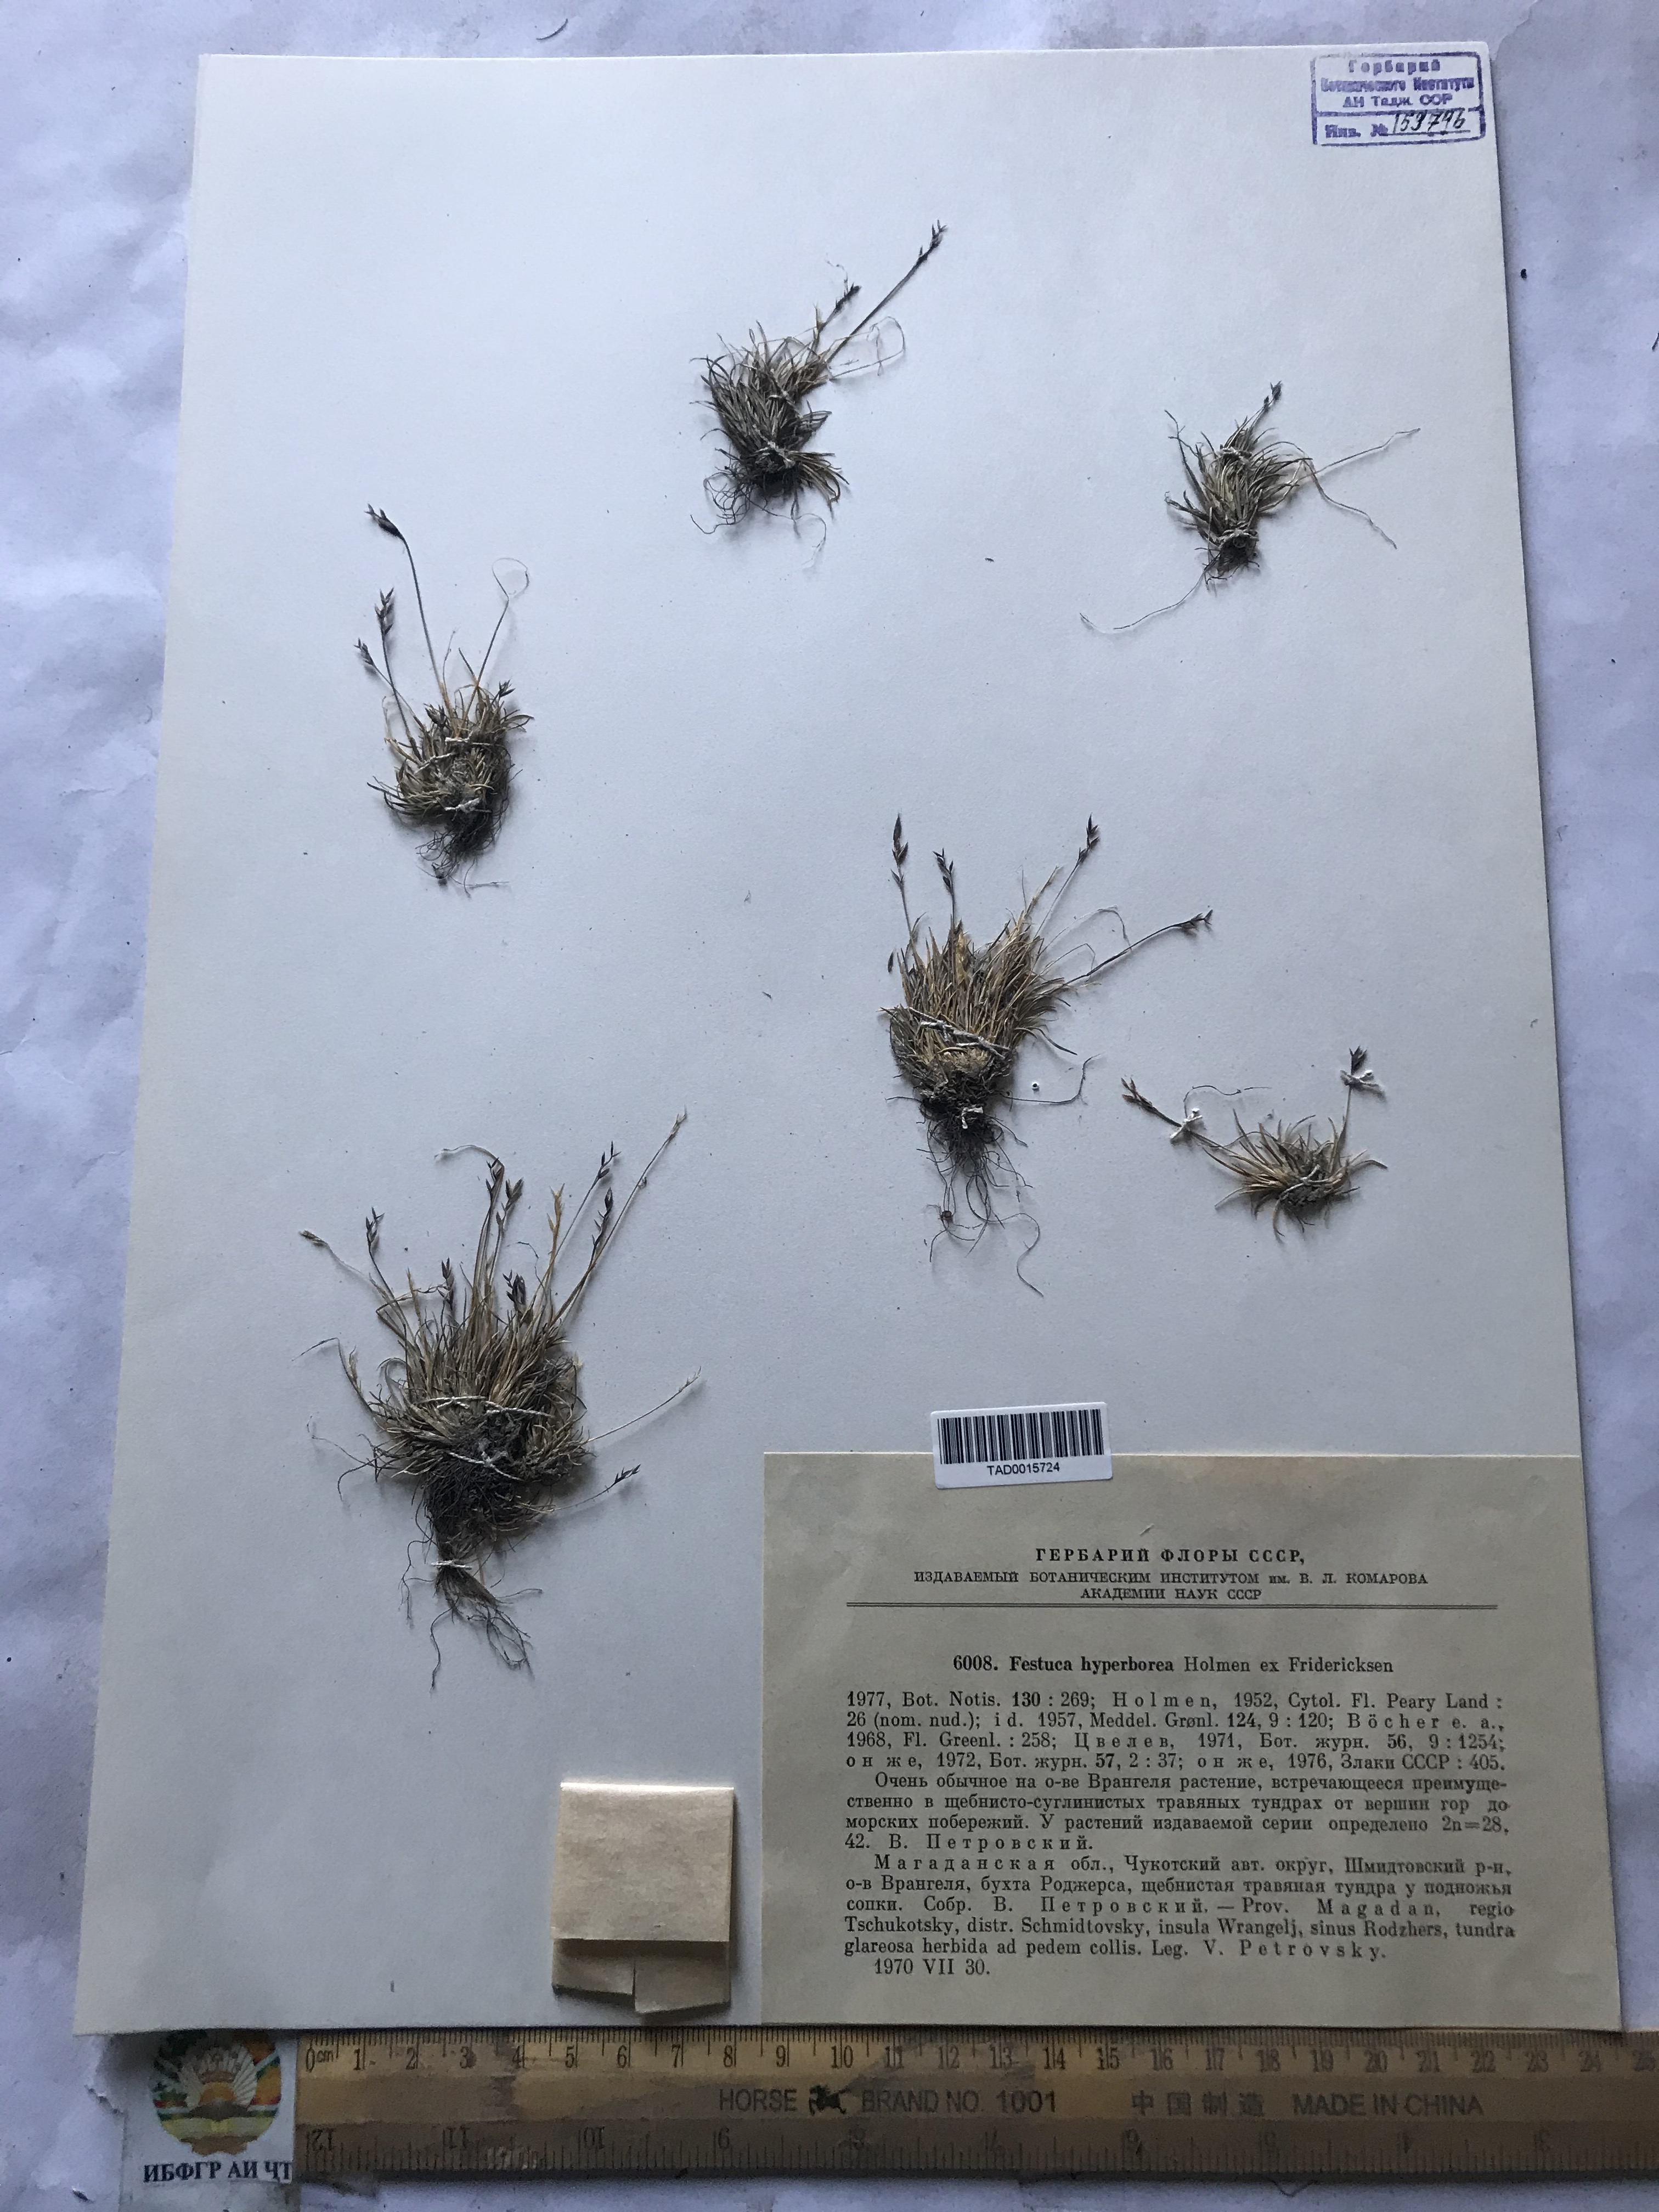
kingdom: Plantae
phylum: Tracheophyta
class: Liliopsida
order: Poales
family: Poaceae
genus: Festuca
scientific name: Festuca hyperborea
